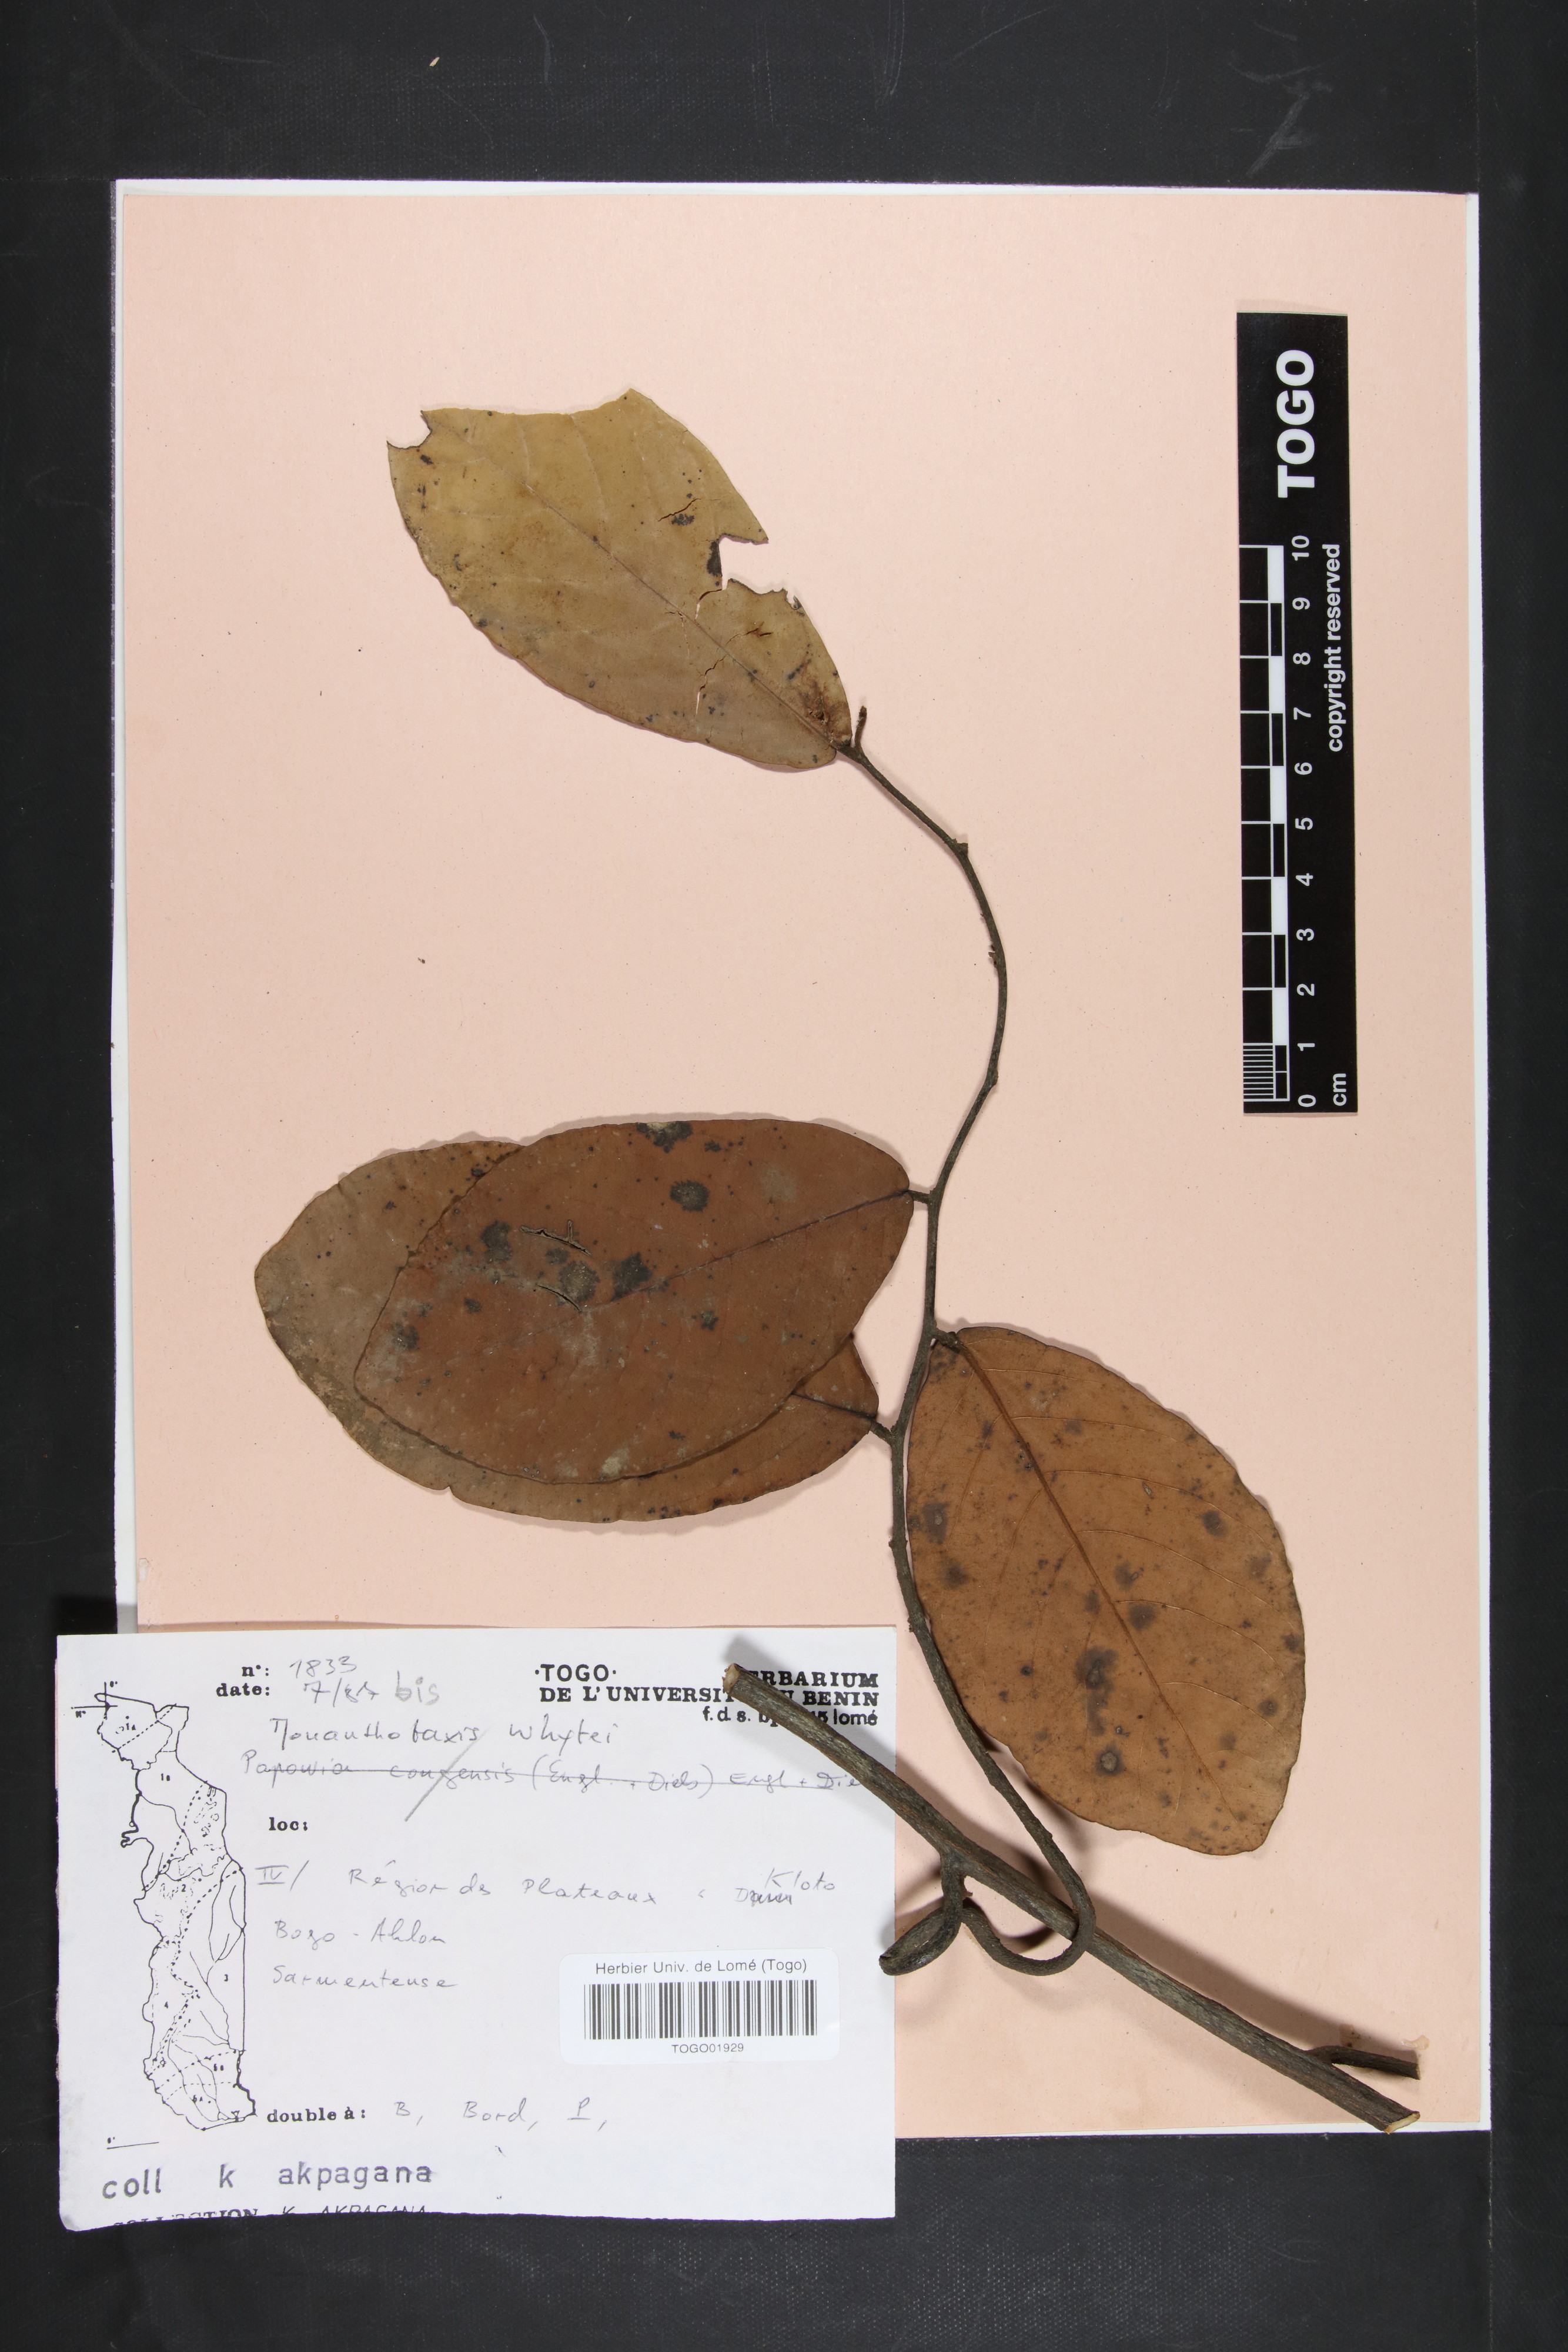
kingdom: Plantae
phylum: Tracheophyta
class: Magnoliopsida
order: Magnoliales
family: Annonaceae
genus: Monanthotaxis
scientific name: Monanthotaxis whytei
